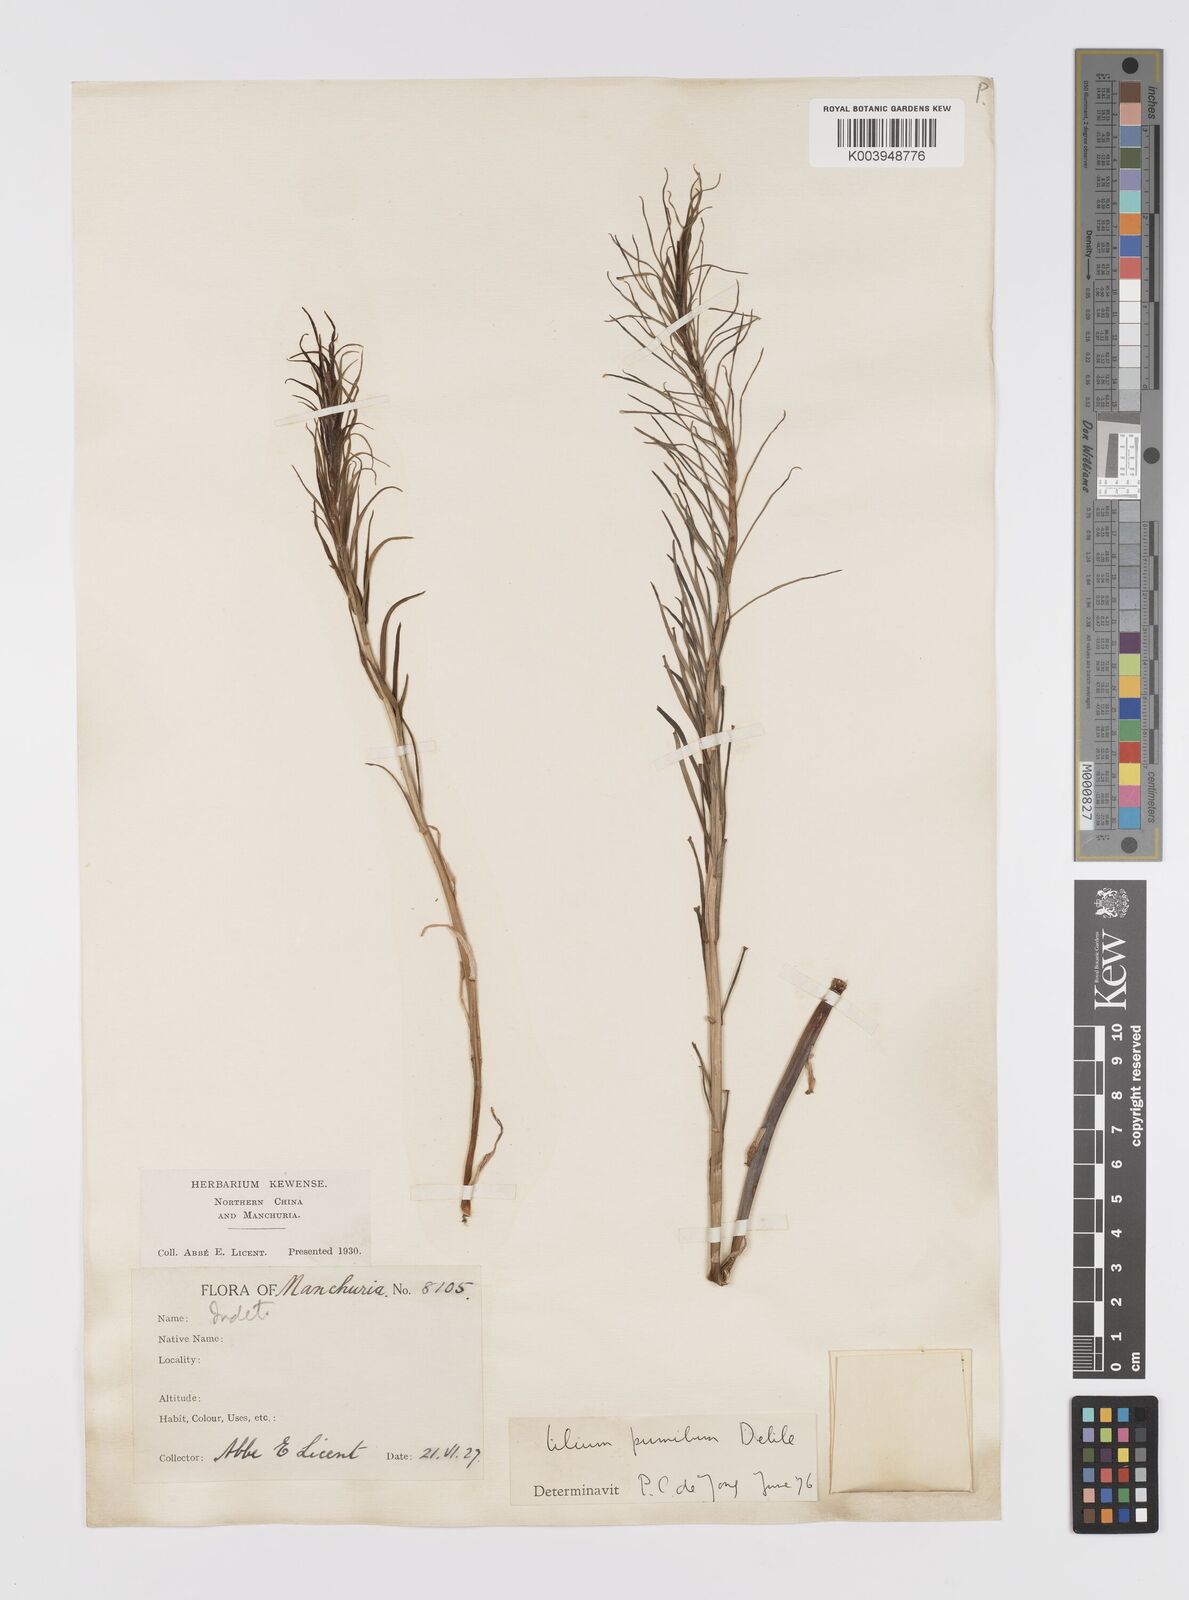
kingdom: Plantae
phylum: Tracheophyta
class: Liliopsida
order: Liliales
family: Liliaceae
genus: Lilium
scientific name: Lilium pumilum
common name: Coral lily
